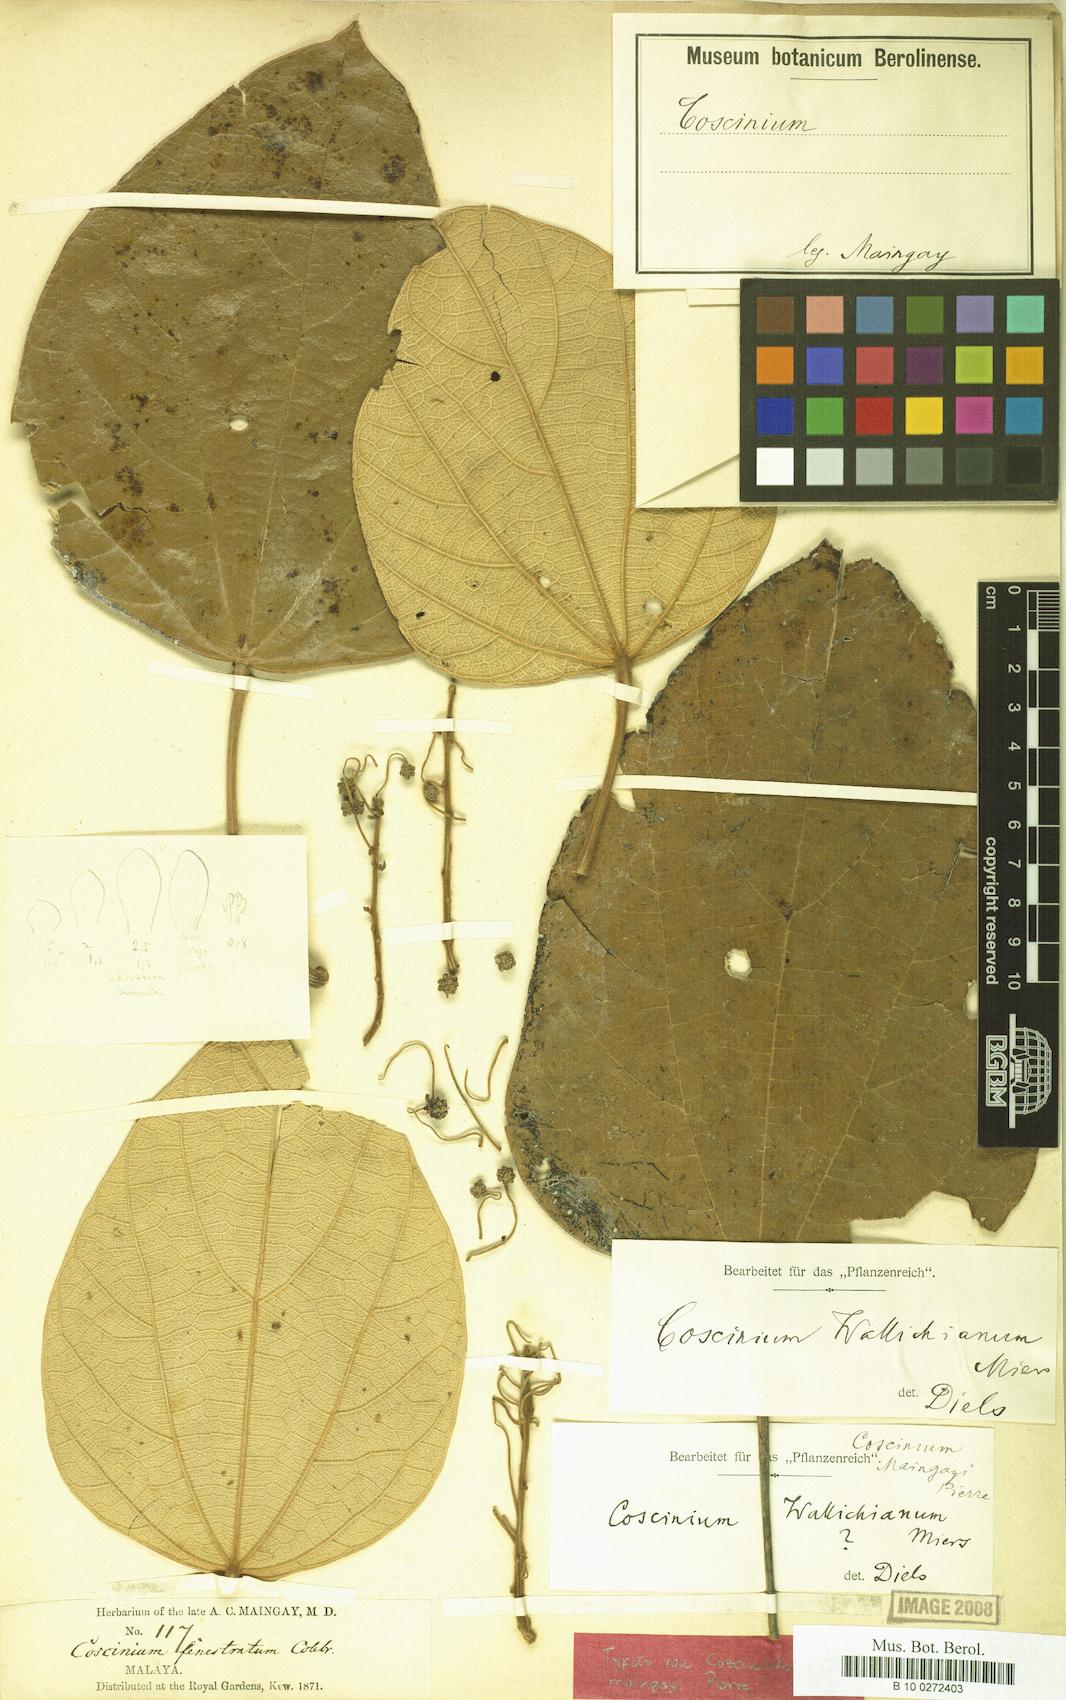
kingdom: Plantae
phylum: Tracheophyta
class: Magnoliopsida
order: Ranunculales
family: Menispermaceae
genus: Coscinium
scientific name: Coscinium fenestratum
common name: False calumba
